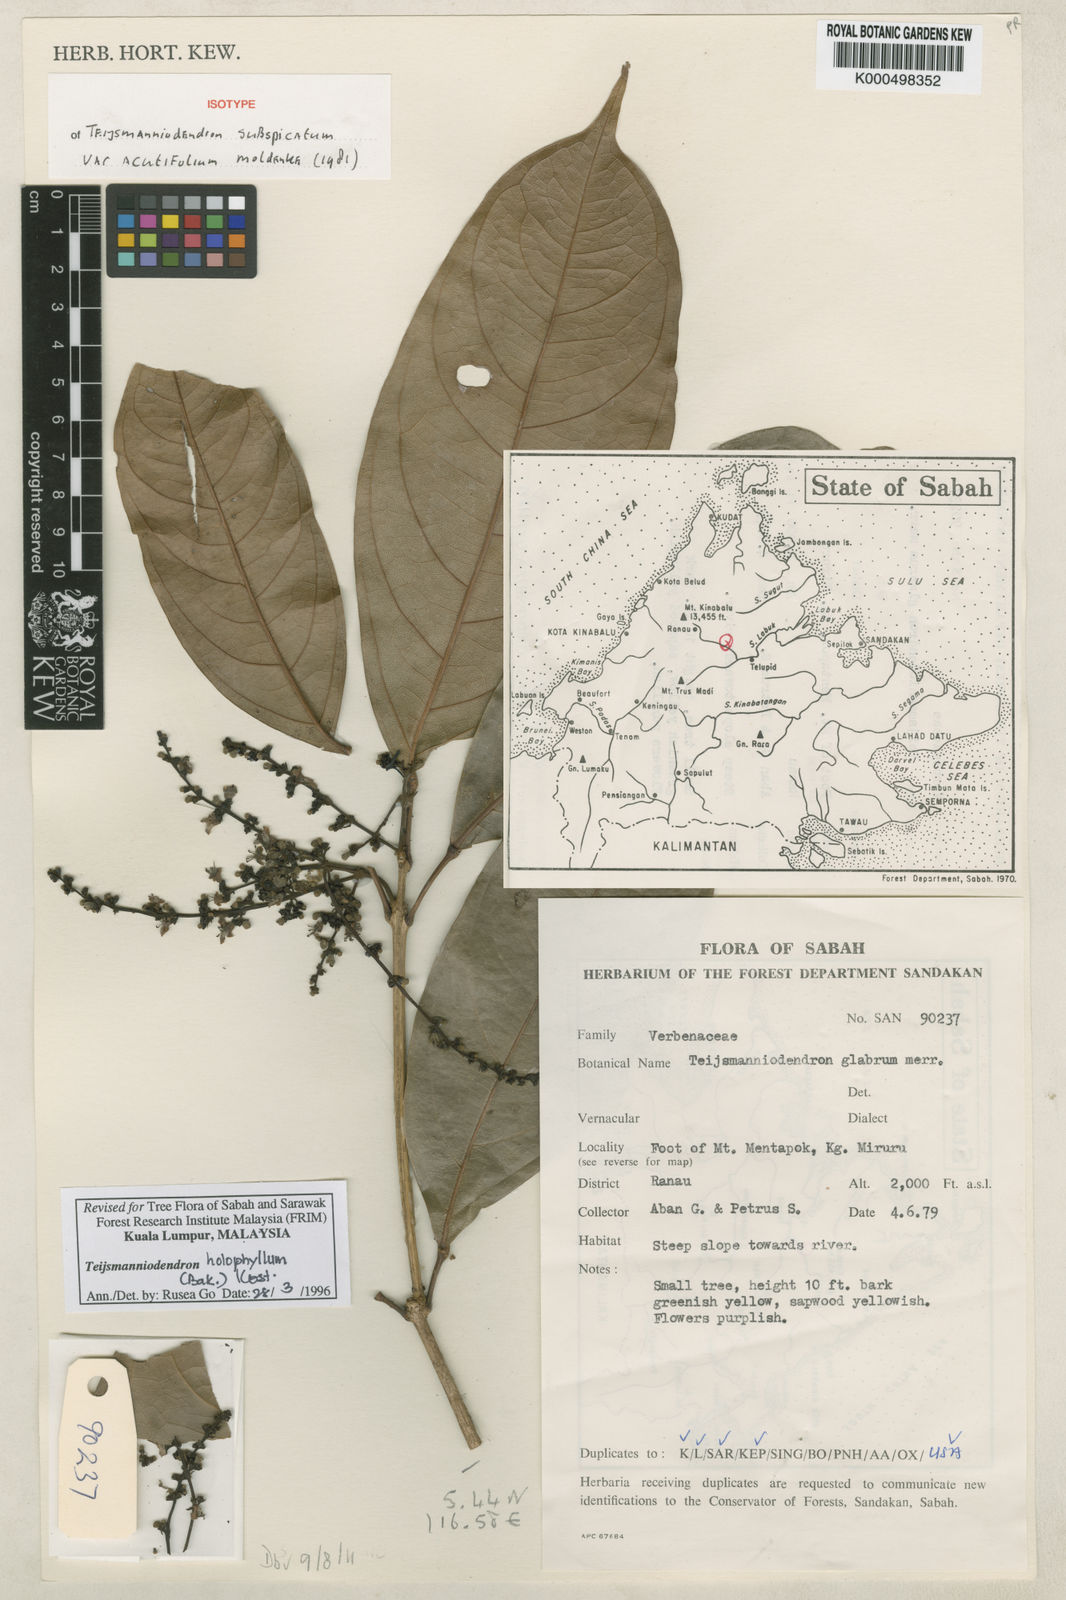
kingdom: Plantae
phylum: Tracheophyta
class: Magnoliopsida
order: Lamiales
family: Lamiaceae
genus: Teijsmanniodendron
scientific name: Teijsmanniodendron holophyllum
